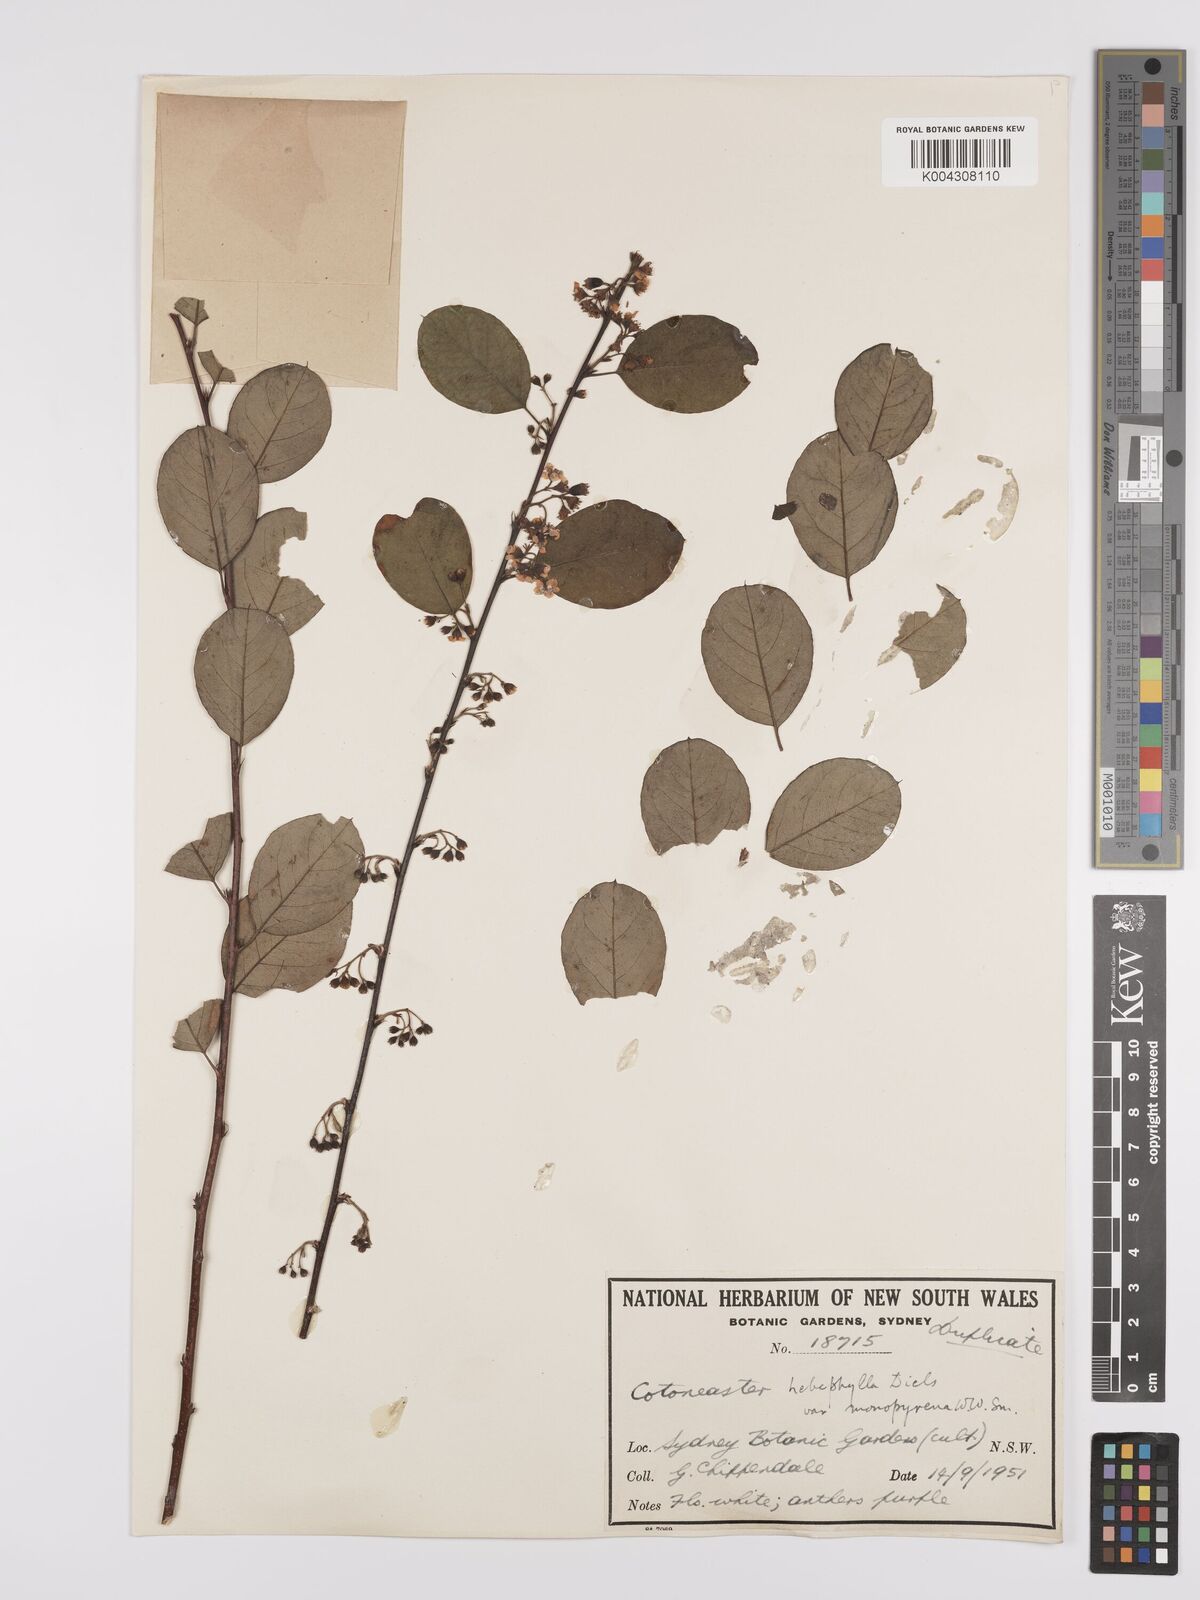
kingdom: Plantae
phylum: Tracheophyta
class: Magnoliopsida
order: Rosales
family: Rosaceae
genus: Cotoneaster
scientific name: Cotoneaster hebephyllus
